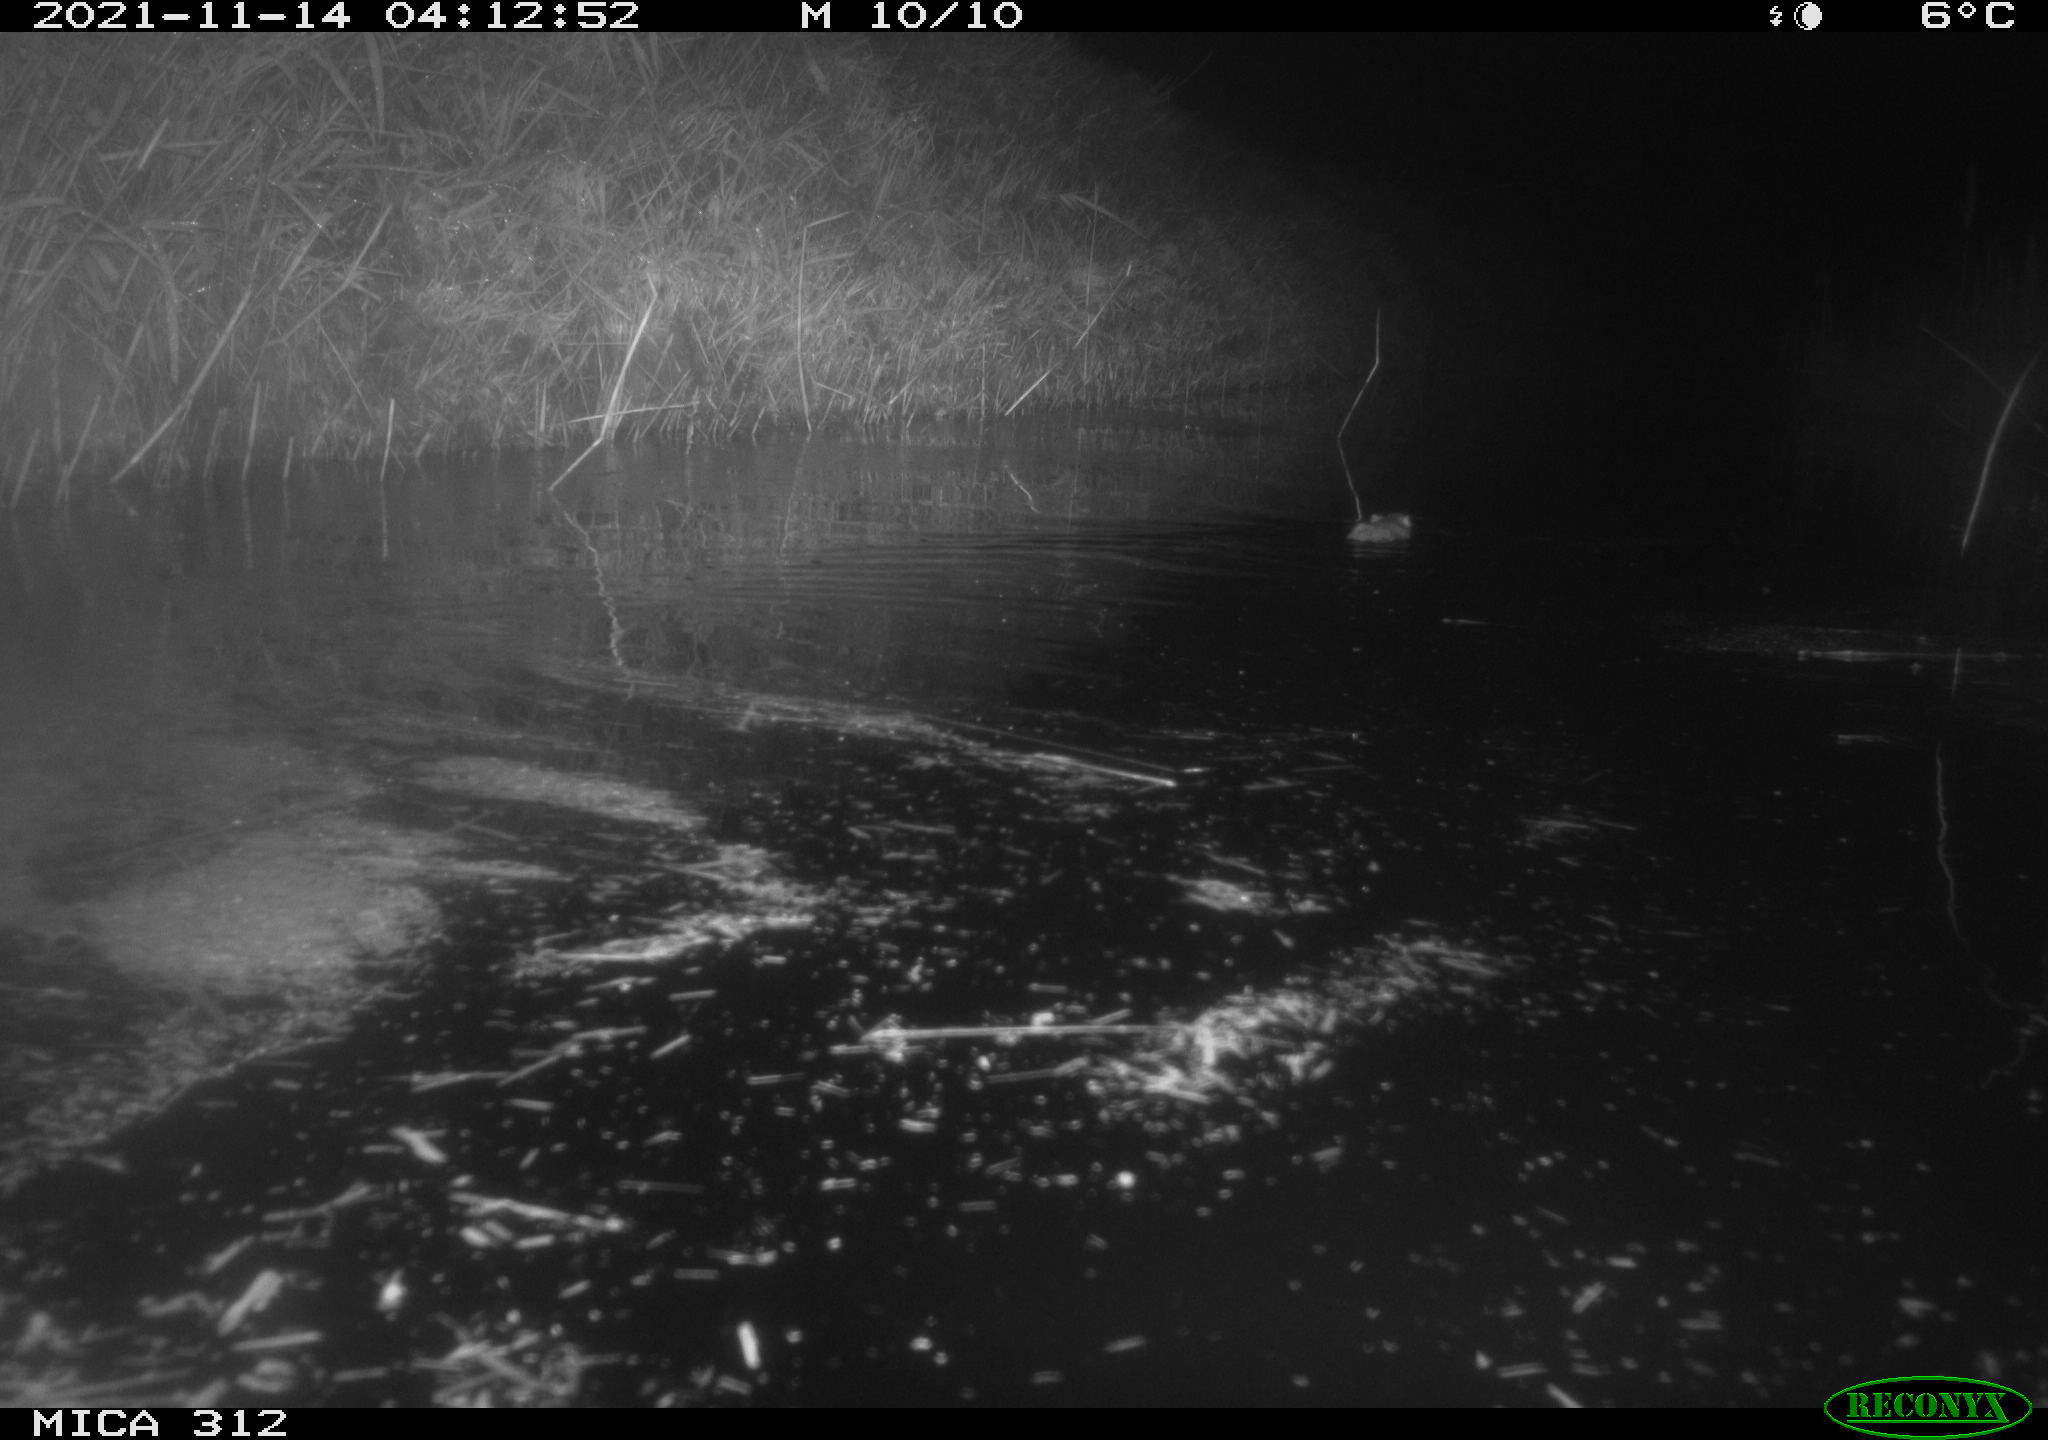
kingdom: Animalia
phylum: Chordata
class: Mammalia
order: Rodentia
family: Muridae
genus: Rattus
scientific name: Rattus norvegicus
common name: Brown rat
